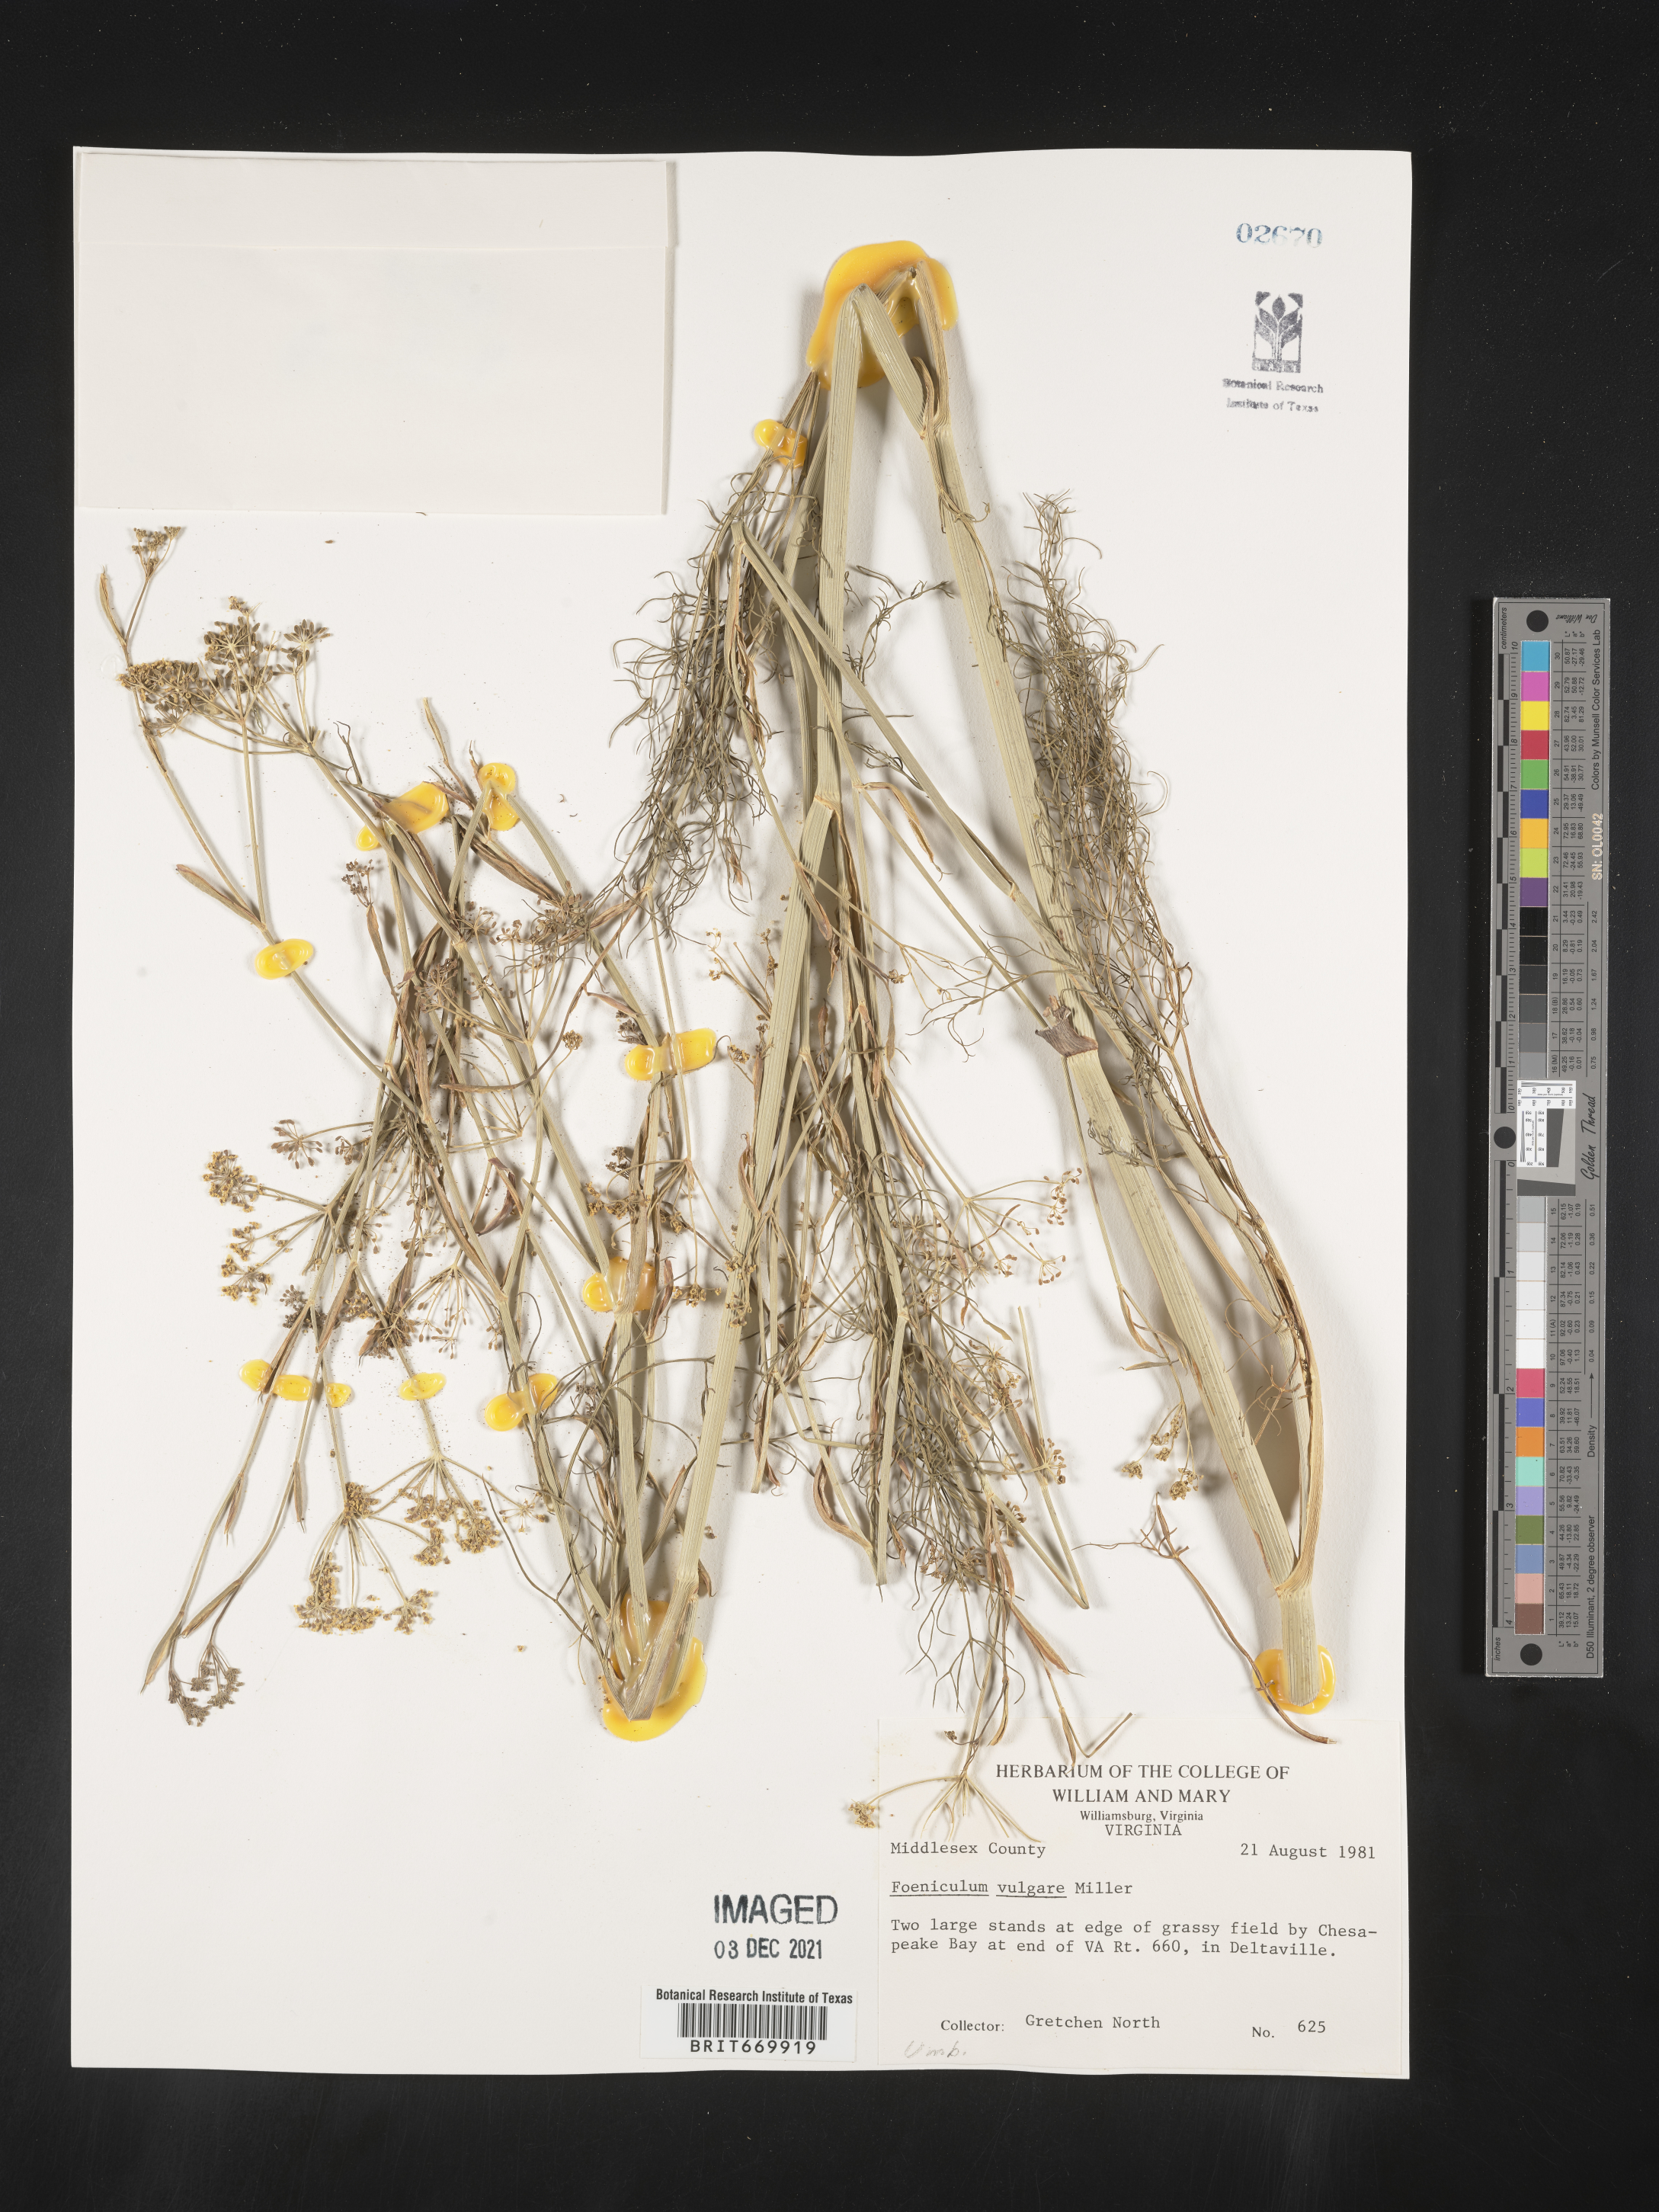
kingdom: Plantae
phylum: Tracheophyta
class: Magnoliopsida
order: Apiales
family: Apiaceae
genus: Foeniculum
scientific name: Foeniculum
